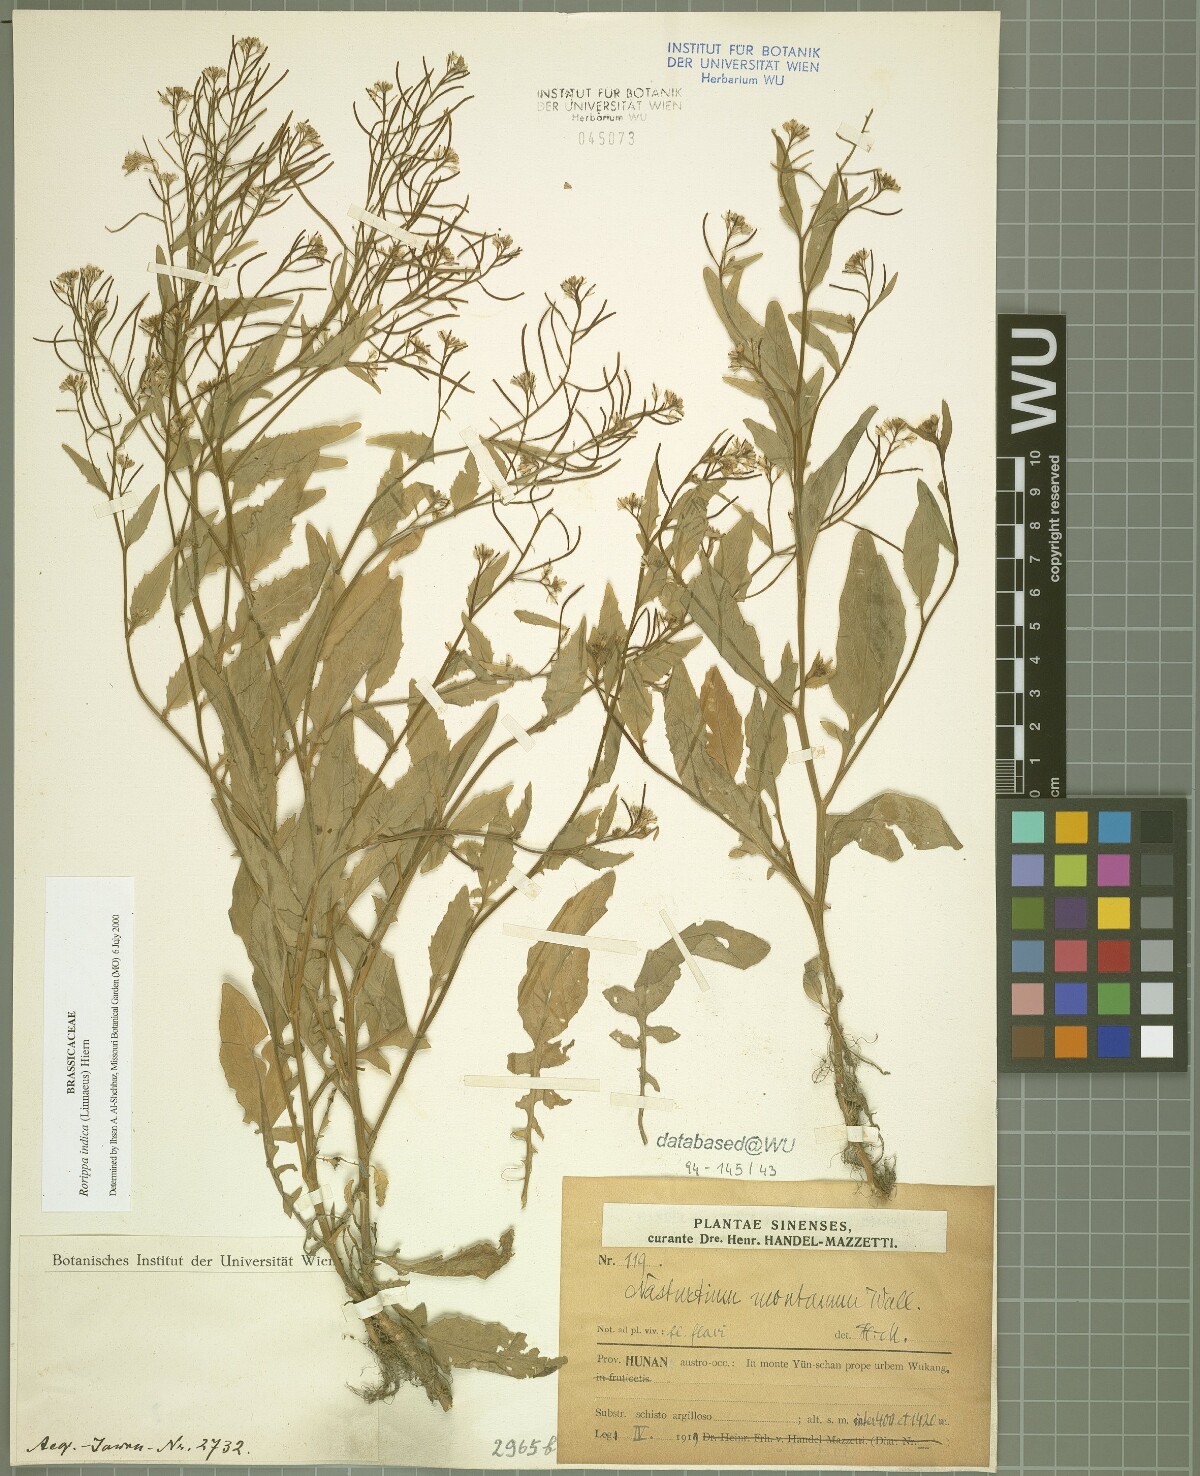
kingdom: Plantae
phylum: Tracheophyta
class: Magnoliopsida
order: Brassicales
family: Brassicaceae
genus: Rorippa
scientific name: Rorippa indica
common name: Variableleaf yellowcress
